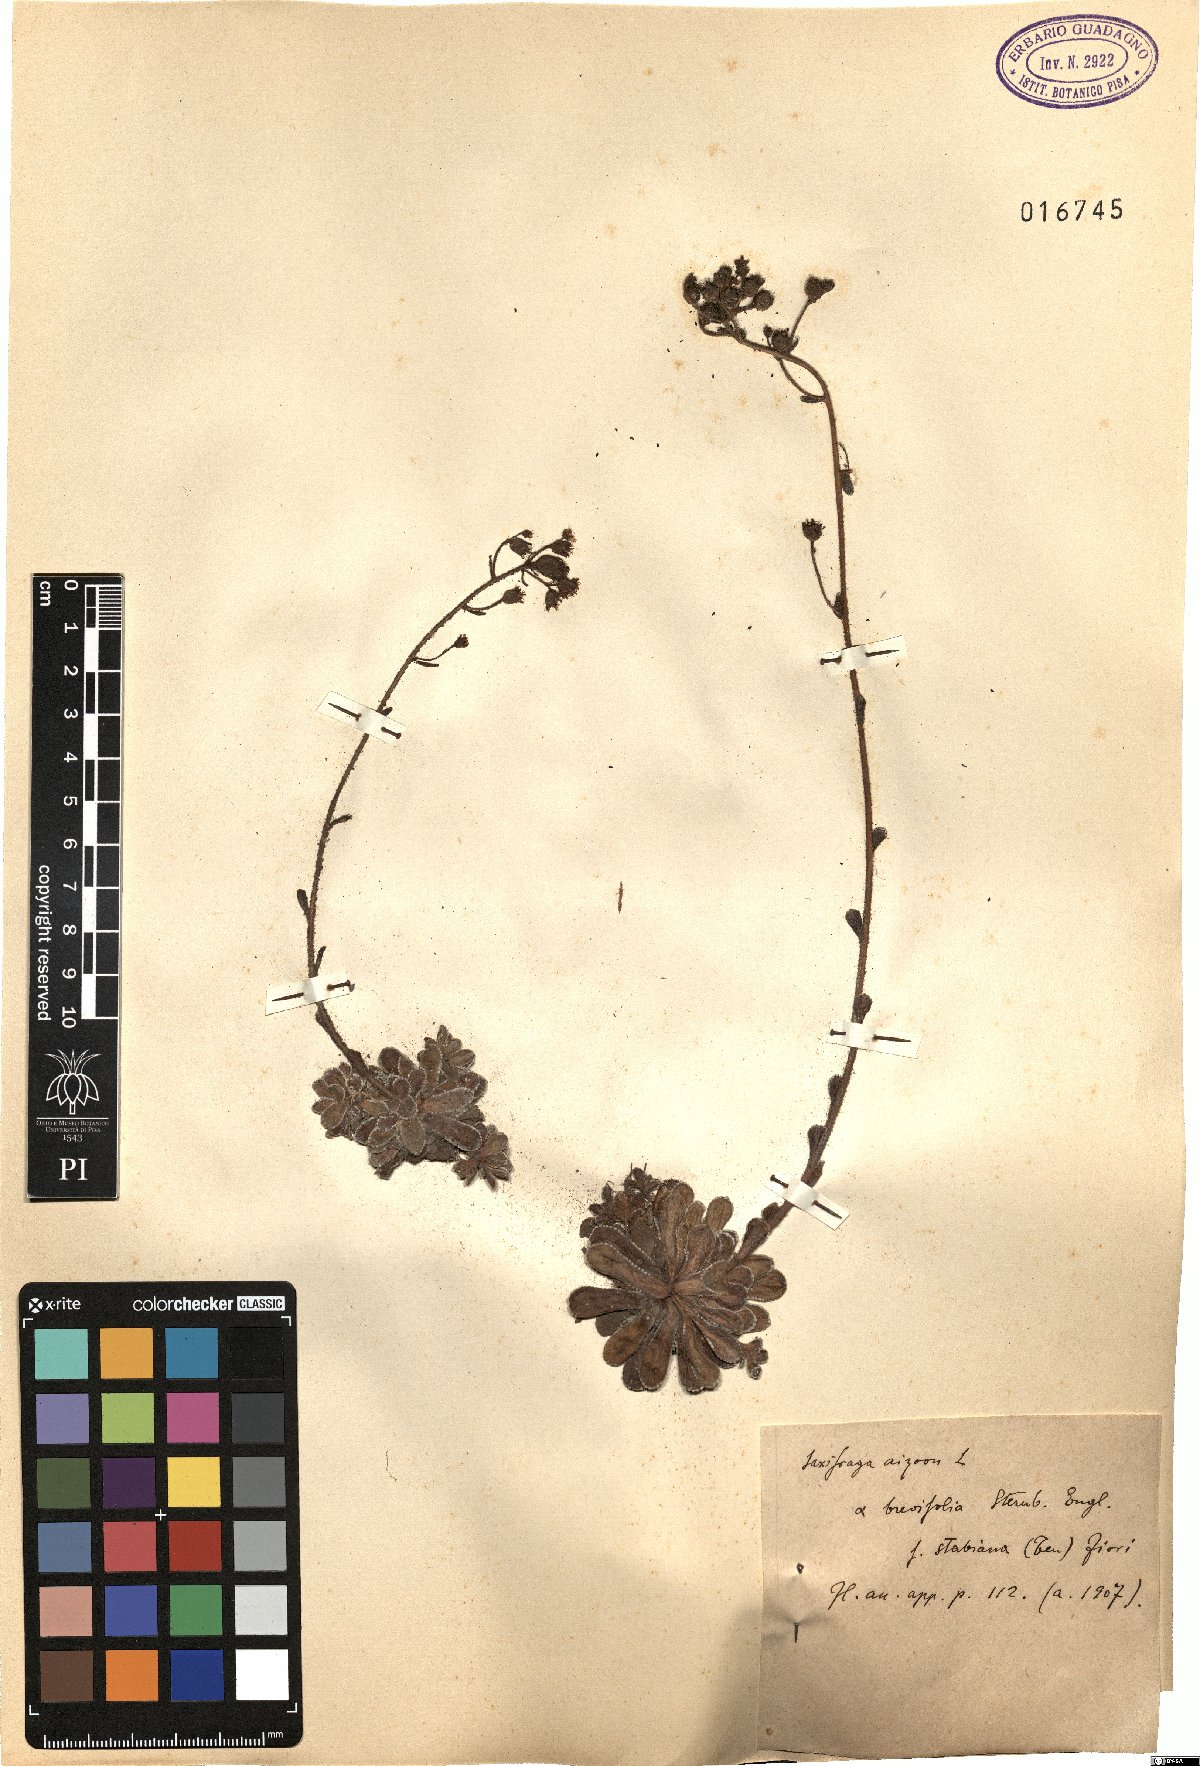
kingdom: Plantae
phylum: Tracheophyta
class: Magnoliopsida
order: Saxifragales
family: Saxifragaceae
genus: Saxifraga
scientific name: Saxifraga paniculata
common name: Livelong saxifrage
